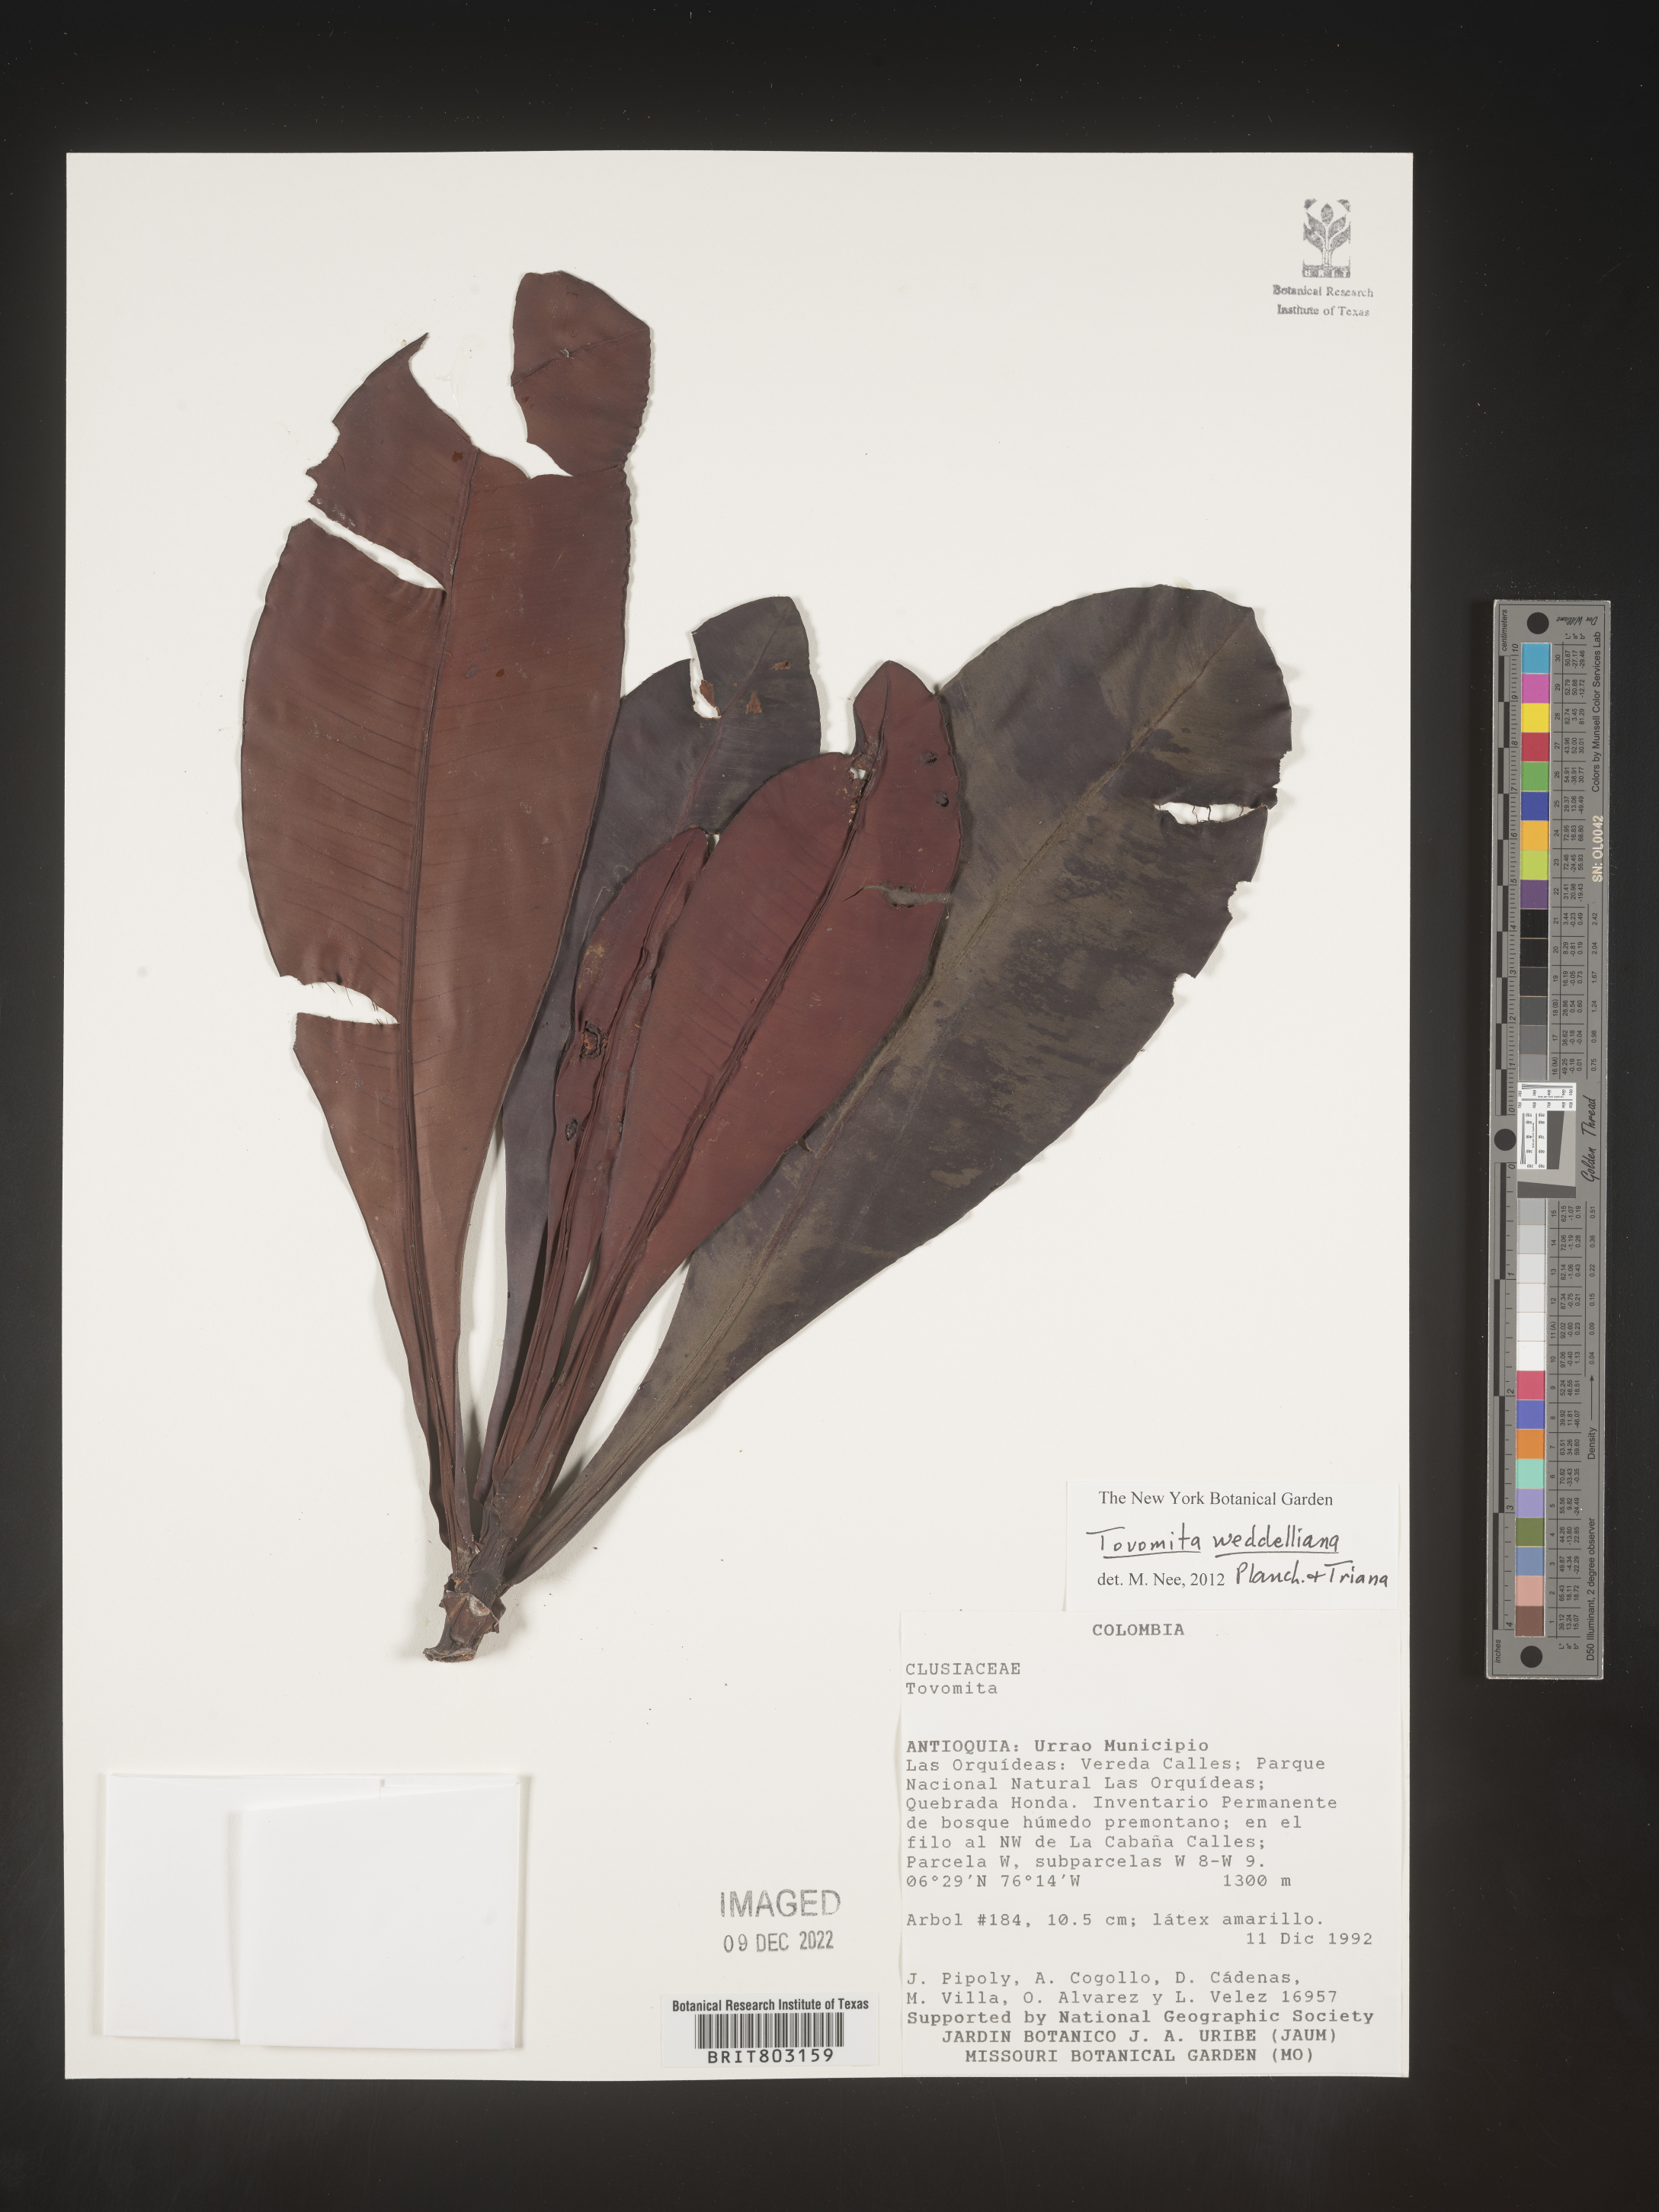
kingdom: Plantae
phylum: Tracheophyta
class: Magnoliopsida
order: Malpighiales
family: Clusiaceae
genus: Arawakia
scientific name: Arawakia weddelliana
